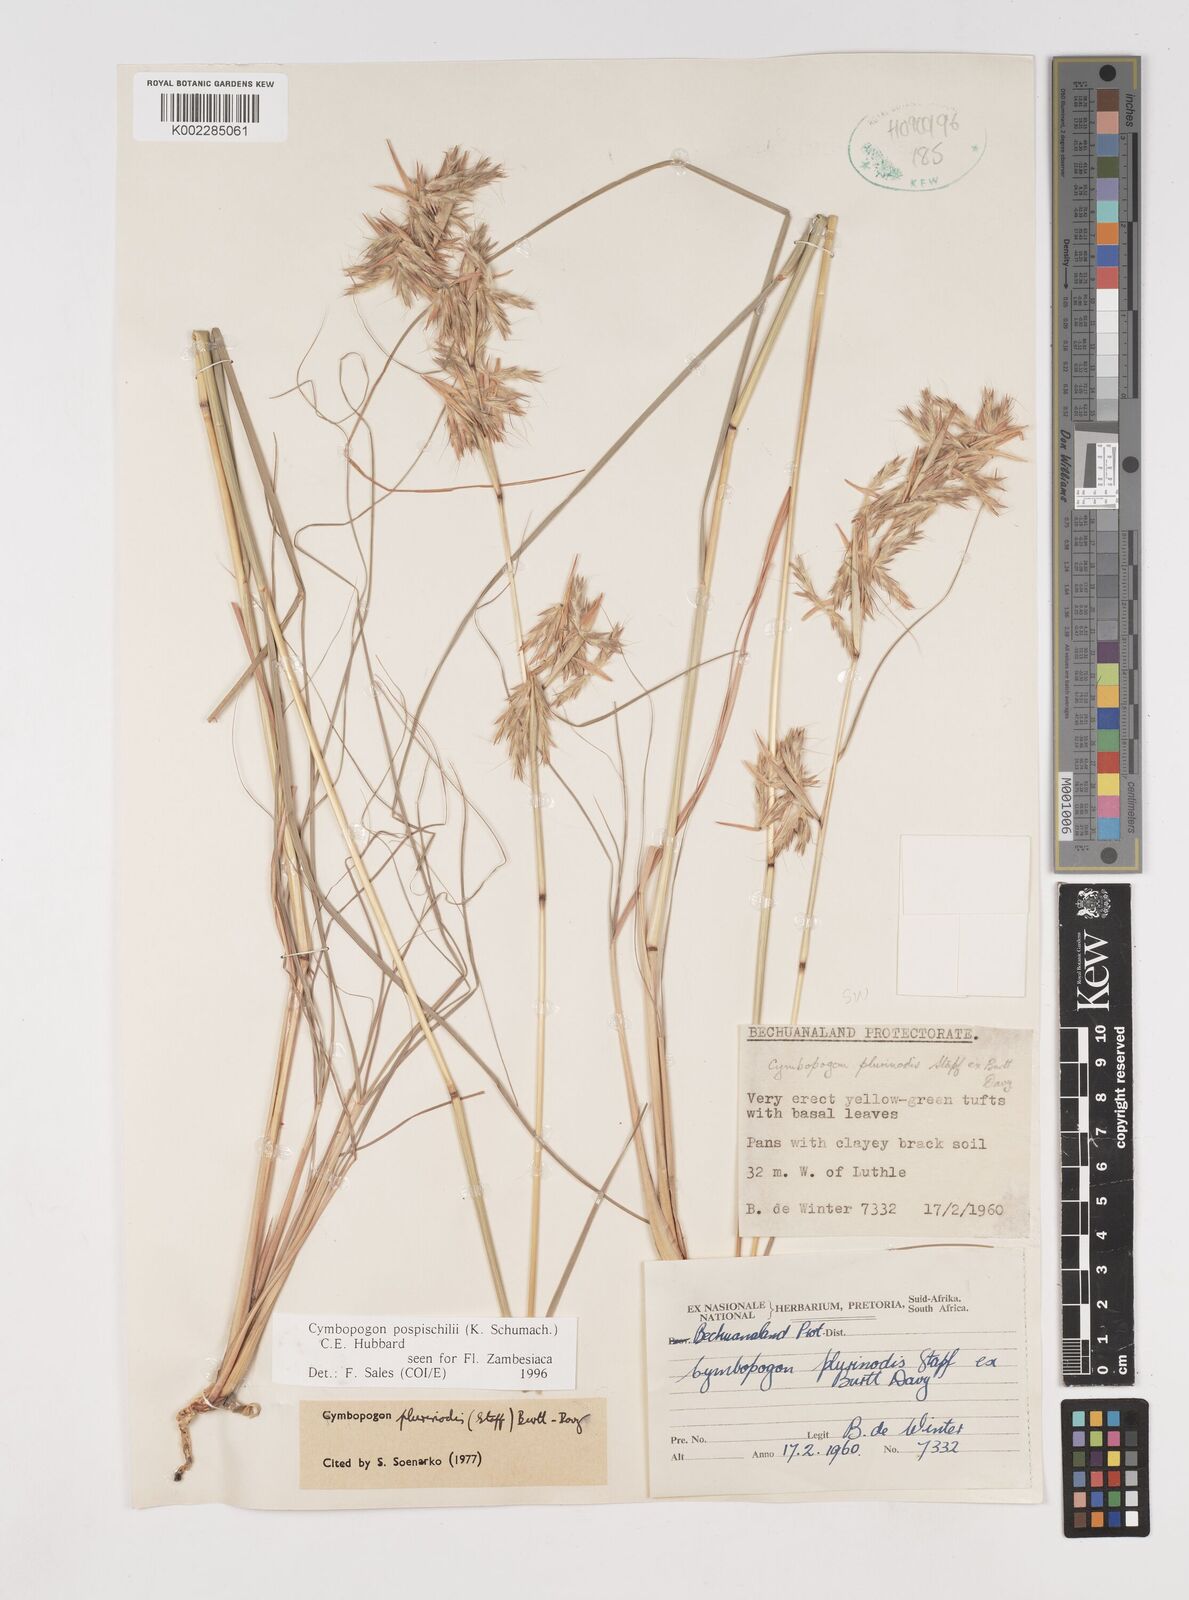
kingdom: Plantae
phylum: Tracheophyta
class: Liliopsida
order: Poales
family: Poaceae
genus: Cymbopogon
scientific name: Cymbopogon pospischilii
